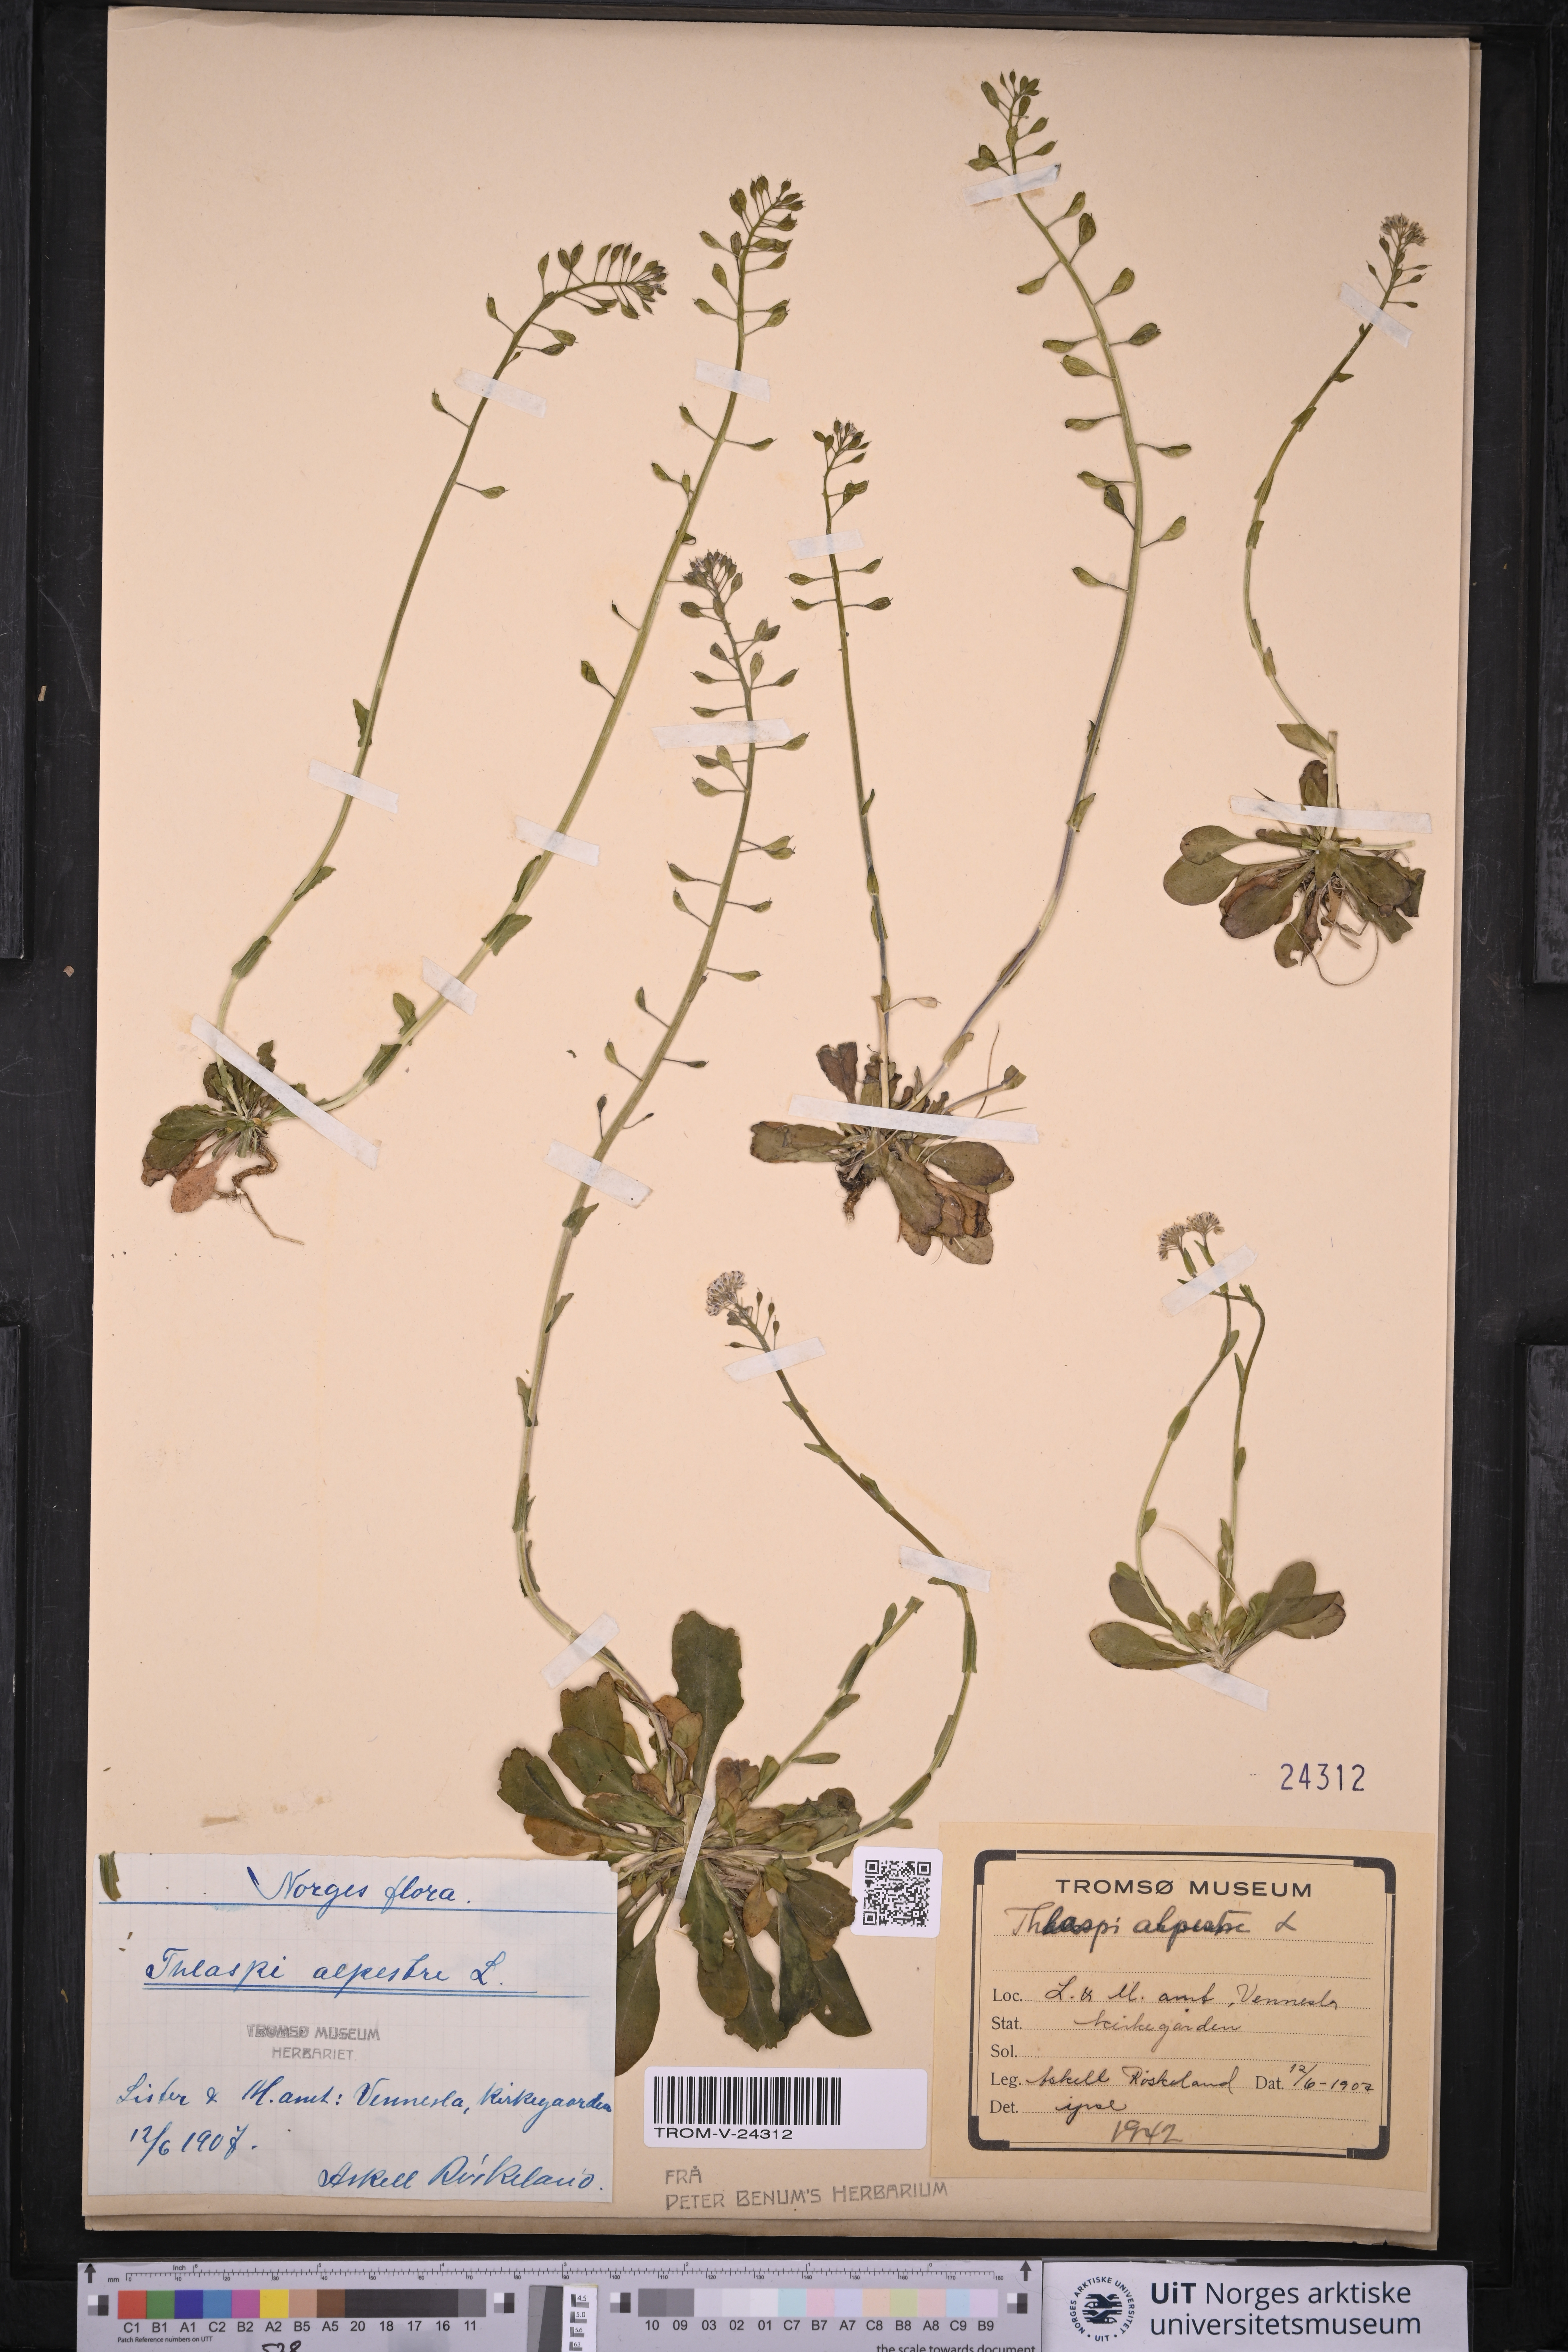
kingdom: Plantae
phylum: Tracheophyta
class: Magnoliopsida
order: Brassicales
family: Brassicaceae
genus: Noccaea
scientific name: Noccaea caerulescens
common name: Alpine pennycress
